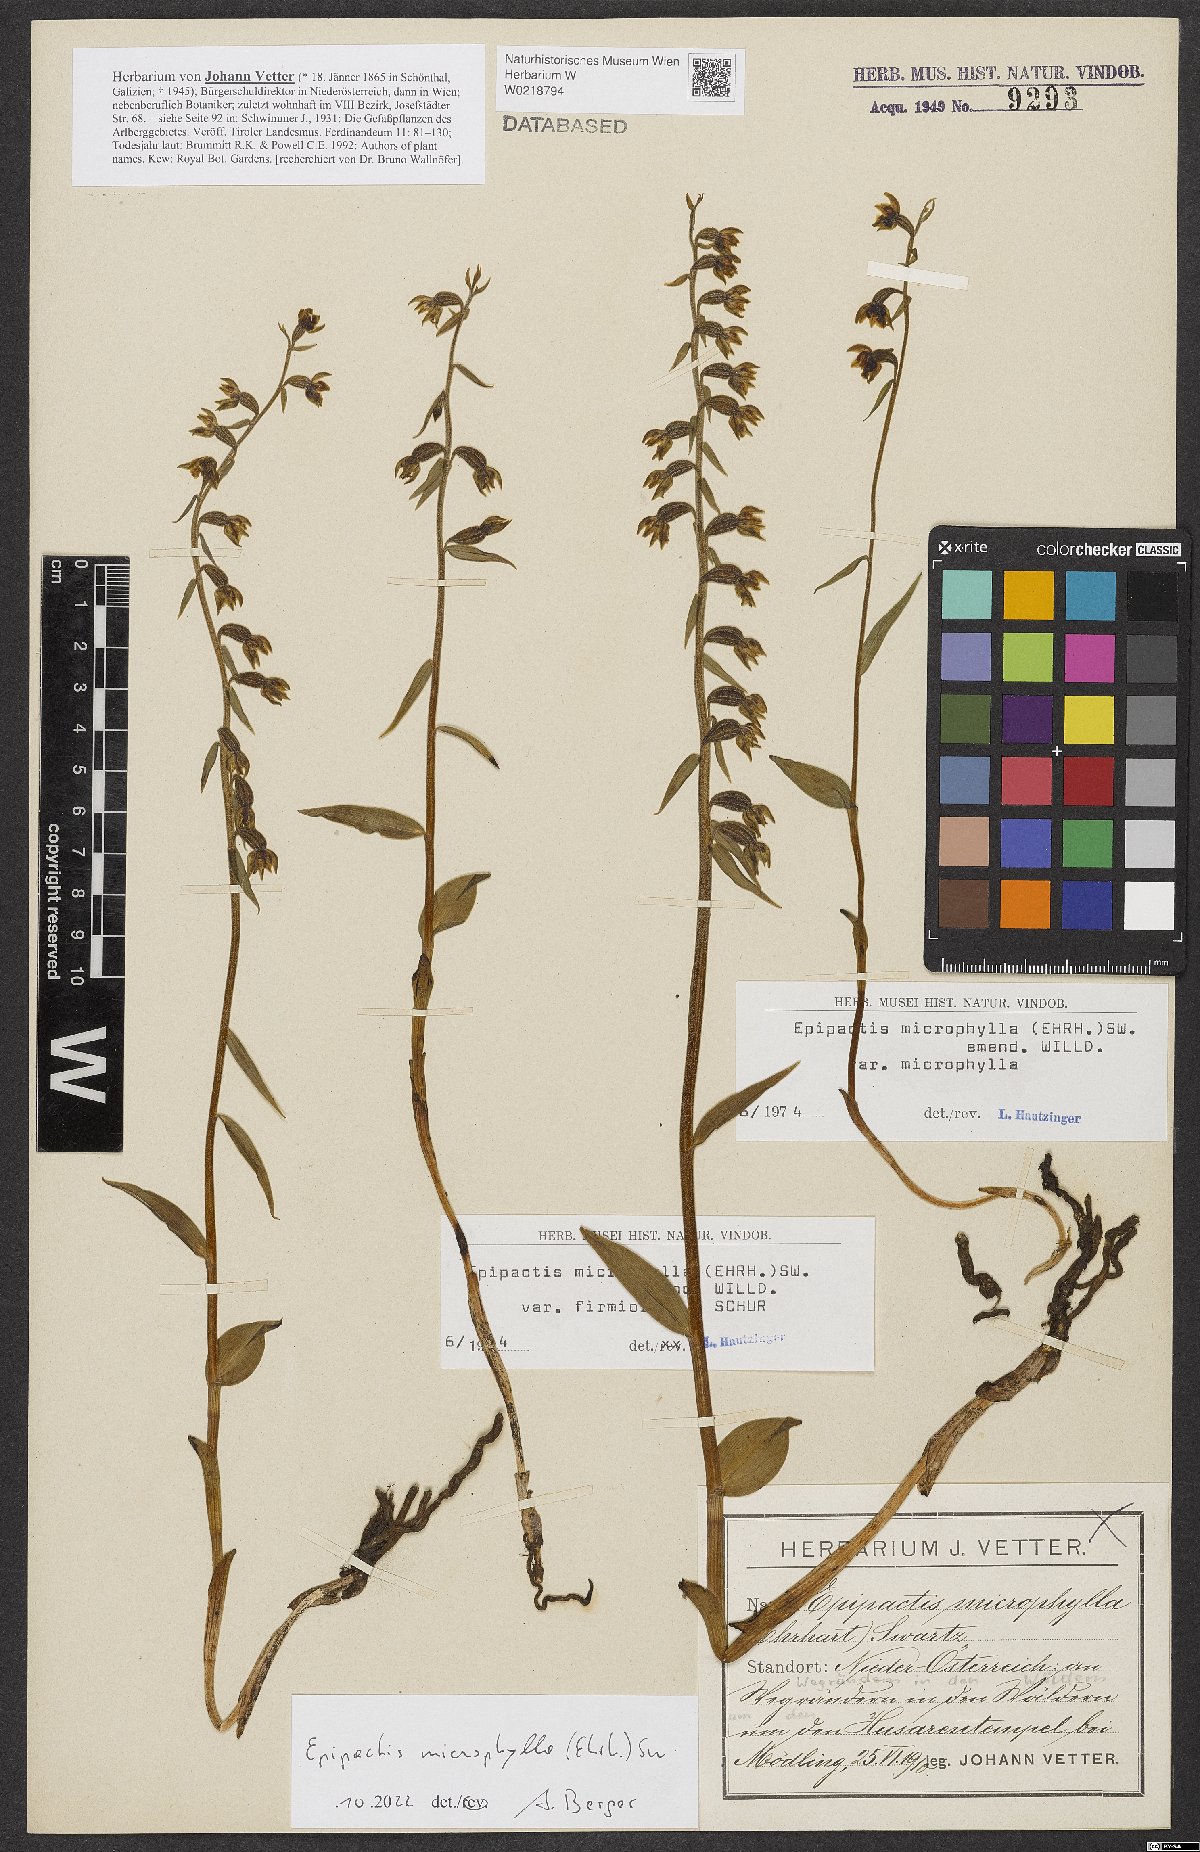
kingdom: Plantae
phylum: Tracheophyta
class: Liliopsida
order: Asparagales
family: Orchidaceae
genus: Epipactis
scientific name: Epipactis microphylla
